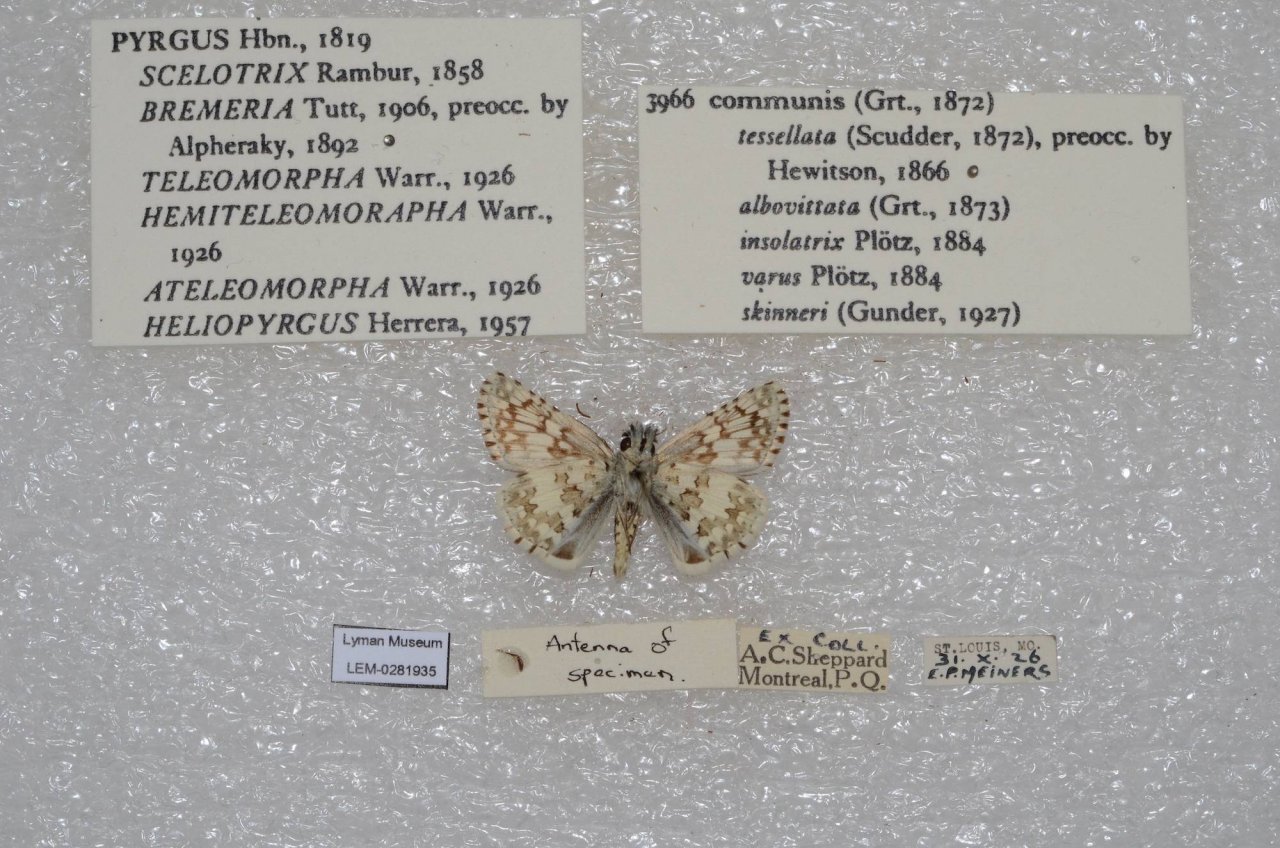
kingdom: Animalia
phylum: Arthropoda
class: Insecta
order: Lepidoptera
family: Hesperiidae
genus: Pyrgus
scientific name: Pyrgus communis
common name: Common Checkered-Skipper
